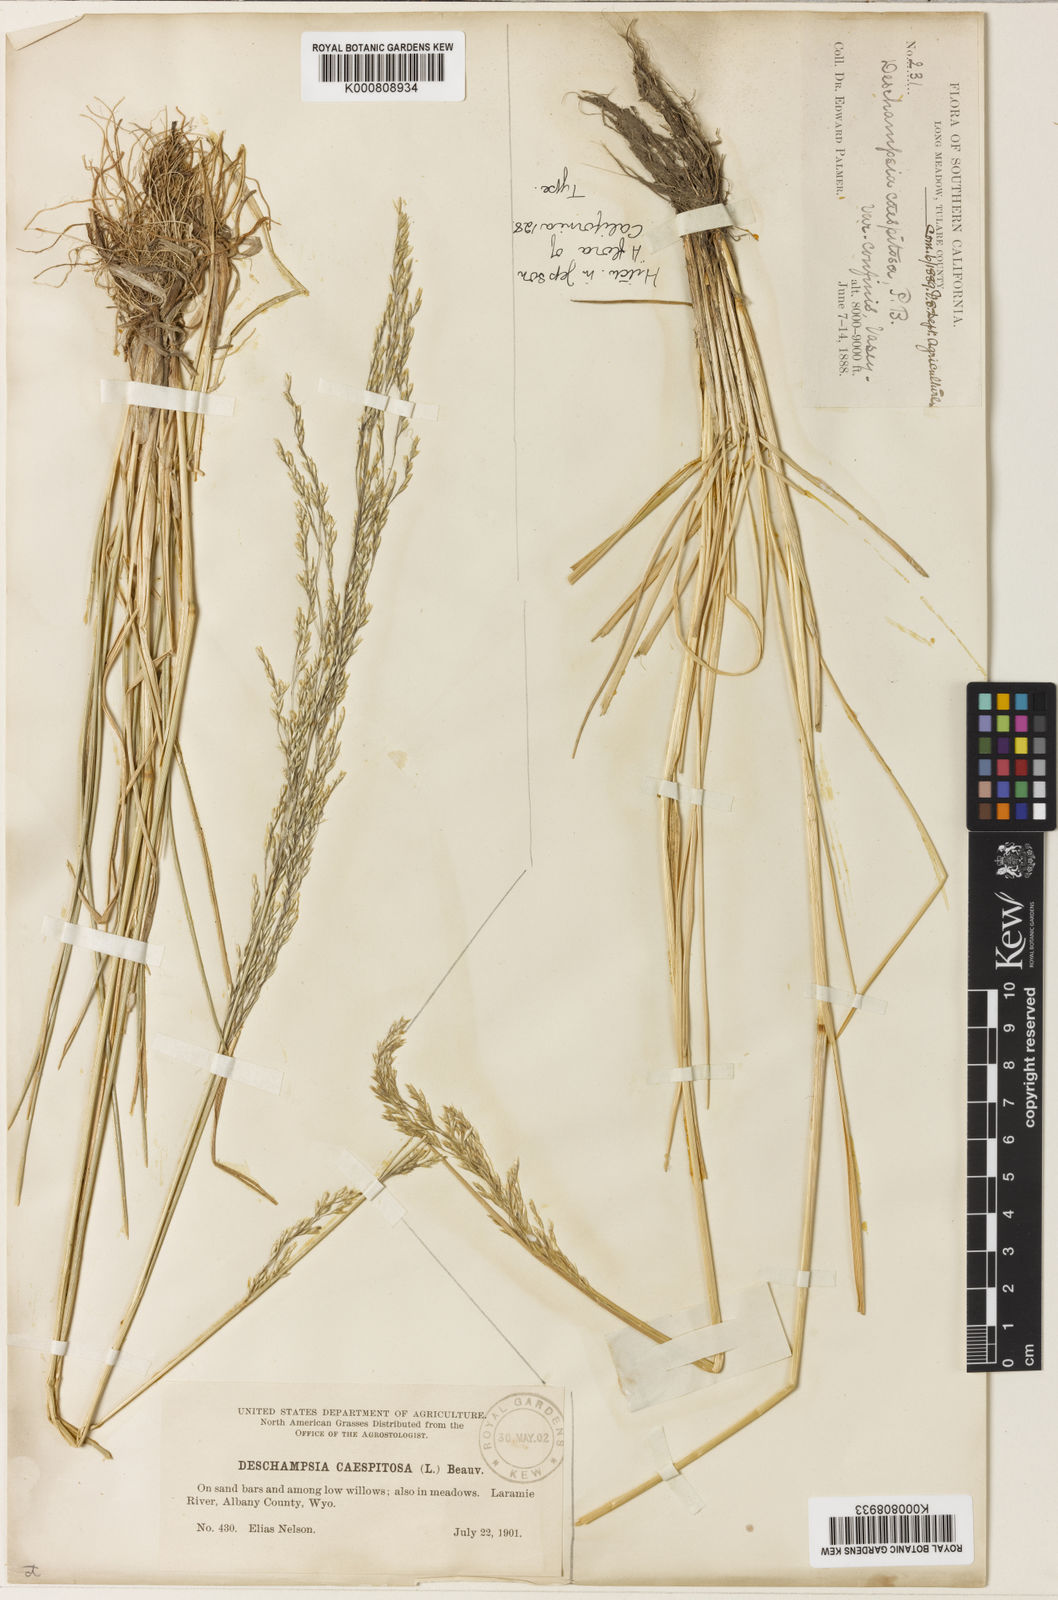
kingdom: Plantae
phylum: Tracheophyta
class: Liliopsida
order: Poales
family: Poaceae
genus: Deschampsia
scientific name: Deschampsia
